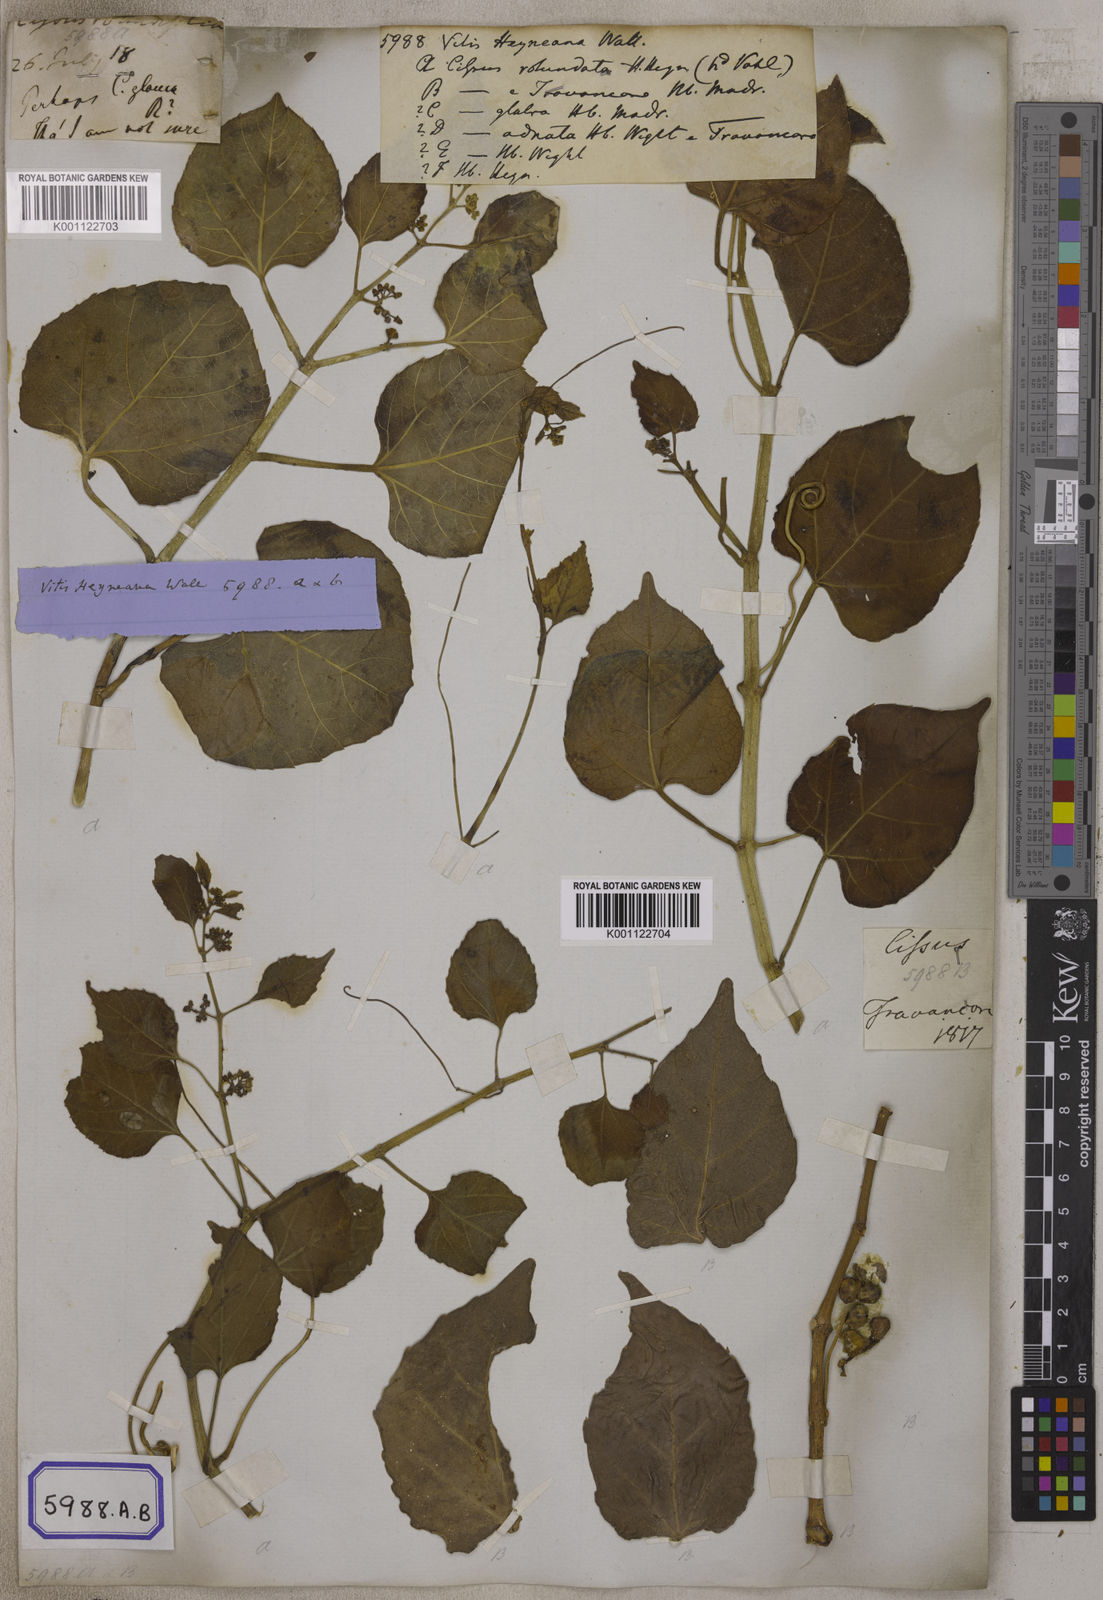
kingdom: Plantae
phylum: Tracheophyta
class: Magnoliopsida
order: Vitales
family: Vitaceae
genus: Vitis
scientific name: Vitis
